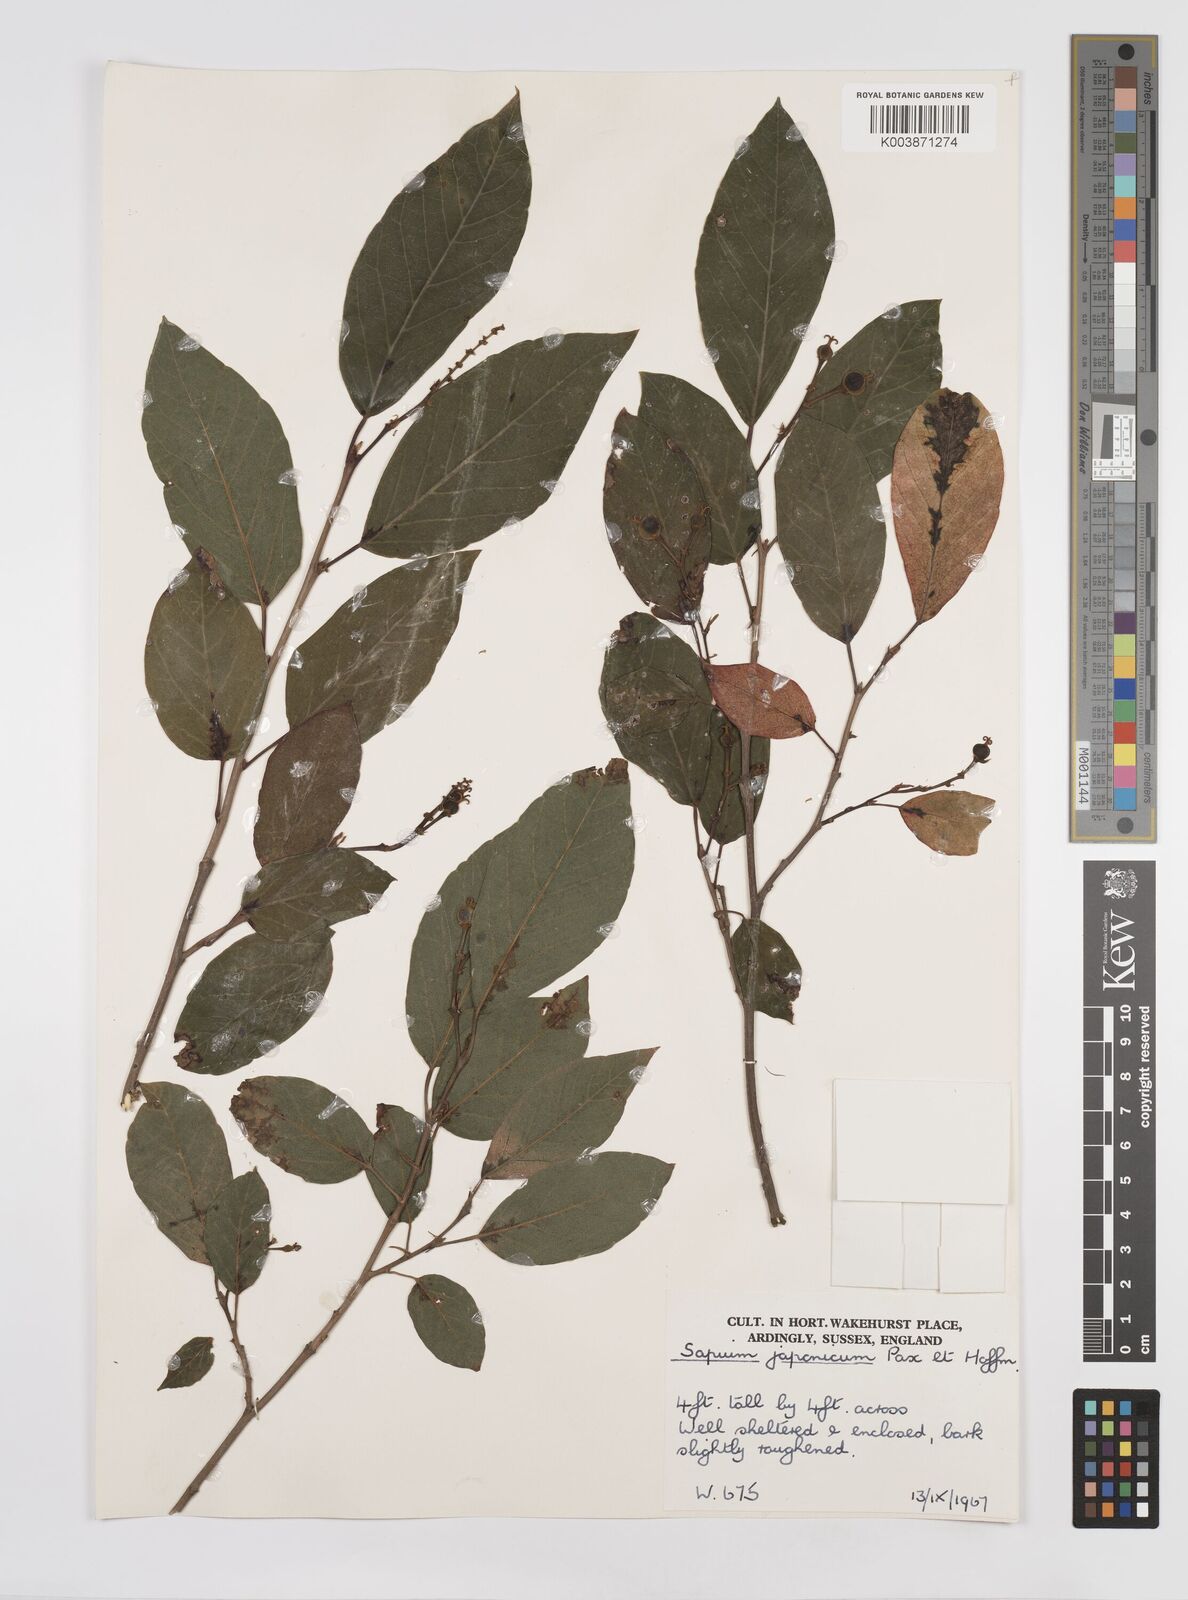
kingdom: Plantae
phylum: Tracheophyta
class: Magnoliopsida
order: Malpighiales
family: Euphorbiaceae
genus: Neoshirakia
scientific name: Neoshirakia japonica
